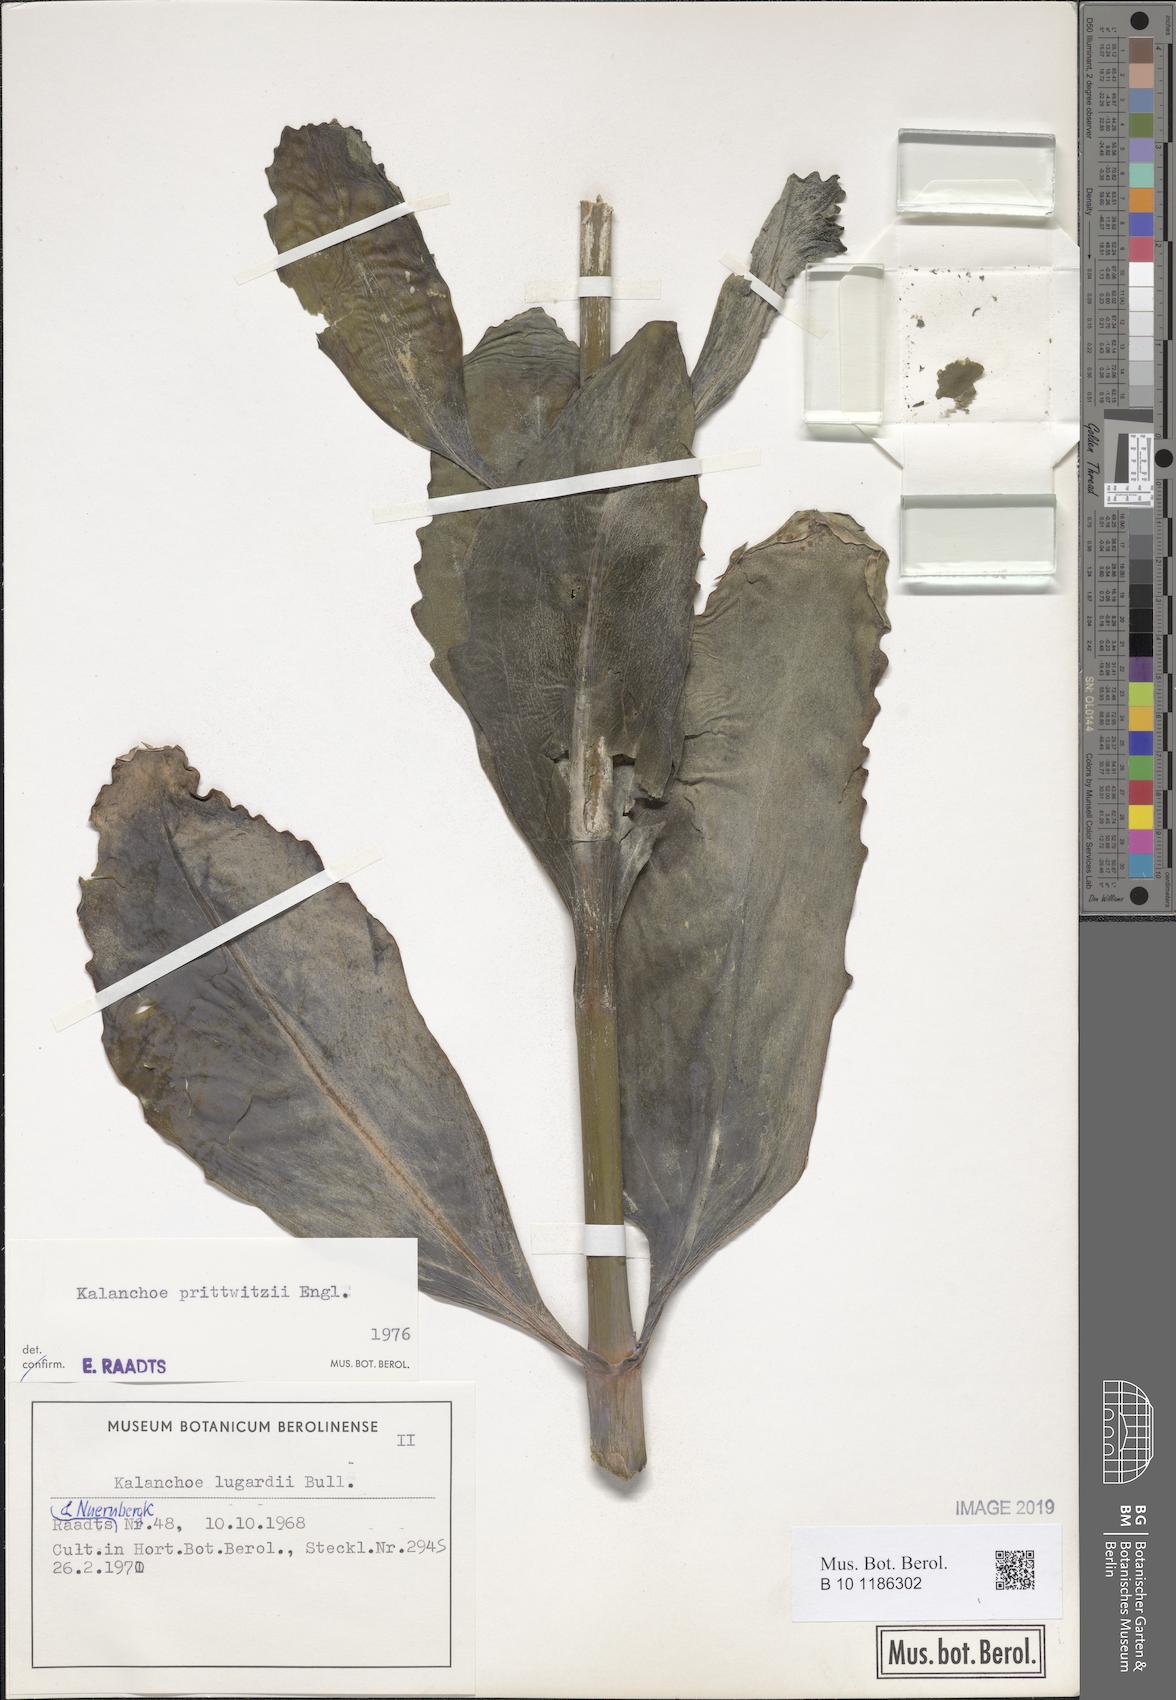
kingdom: Plantae
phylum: Tracheophyta
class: Magnoliopsida
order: Saxifragales
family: Crassulaceae
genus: Kalanchoe
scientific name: Kalanchoe prittwitzii
